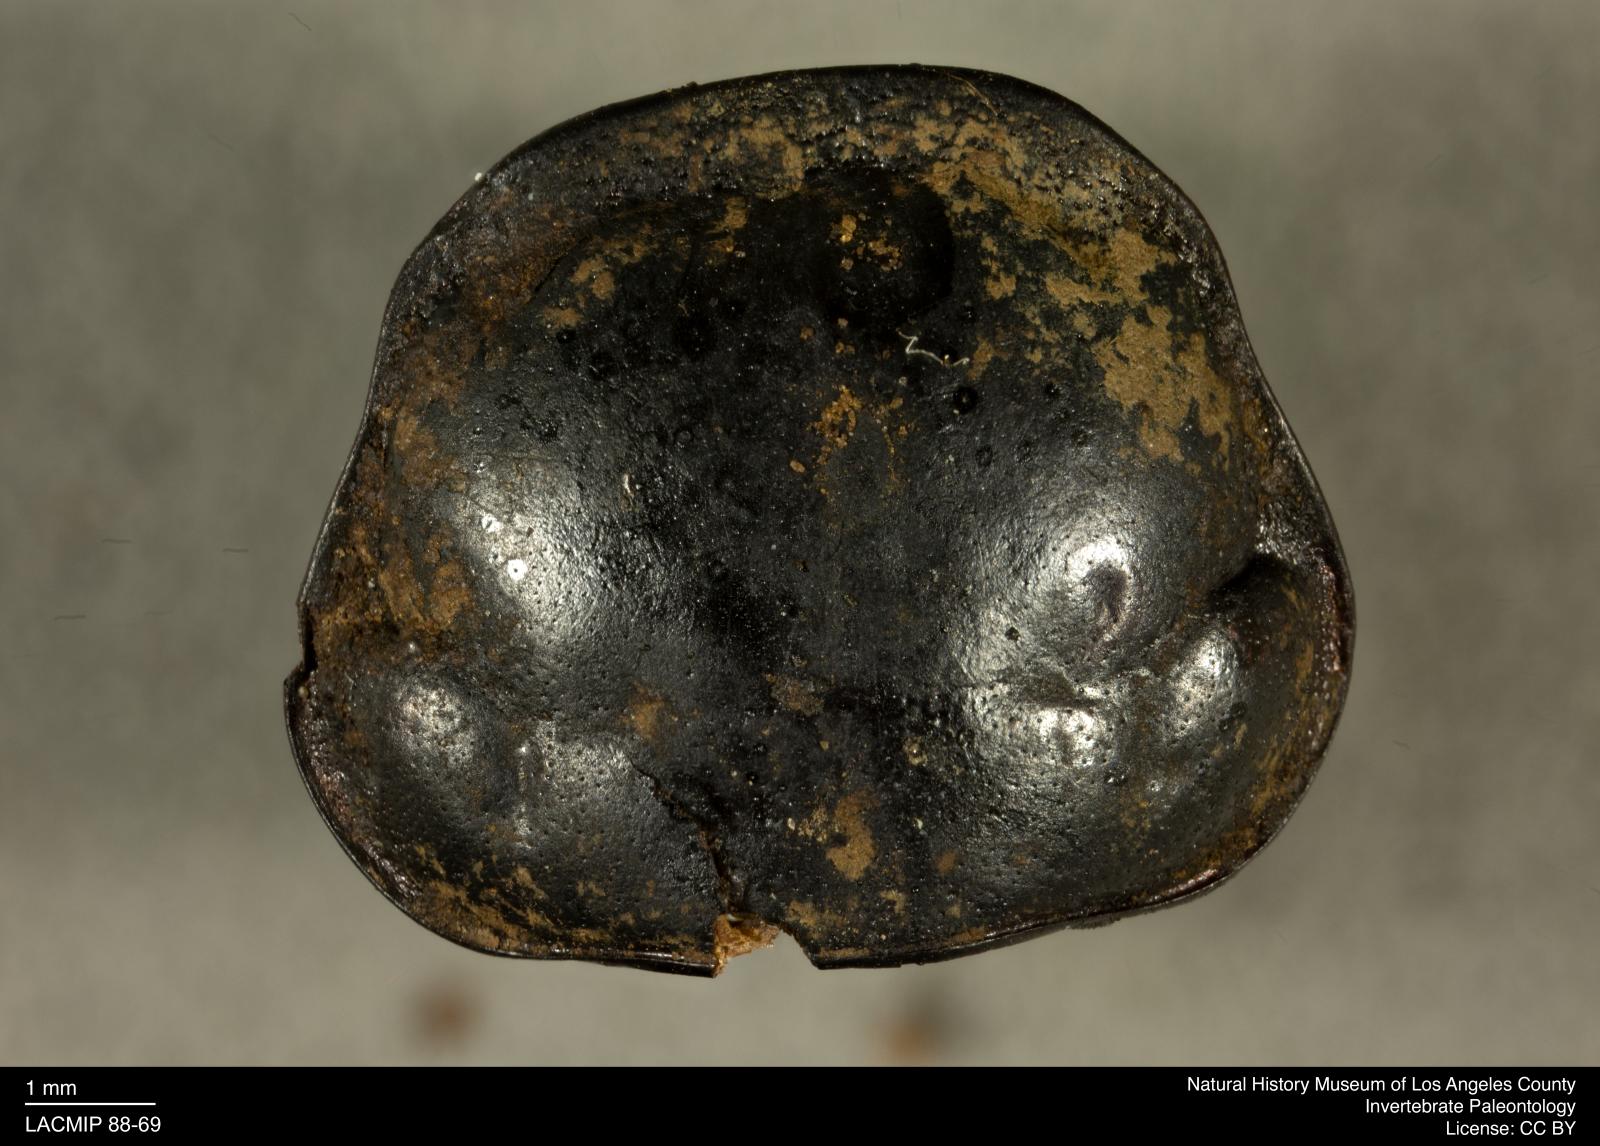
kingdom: Animalia
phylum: Arthropoda
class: Insecta
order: Coleoptera
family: Staphylinidae
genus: Nicrophorus
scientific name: Nicrophorus marginatus
